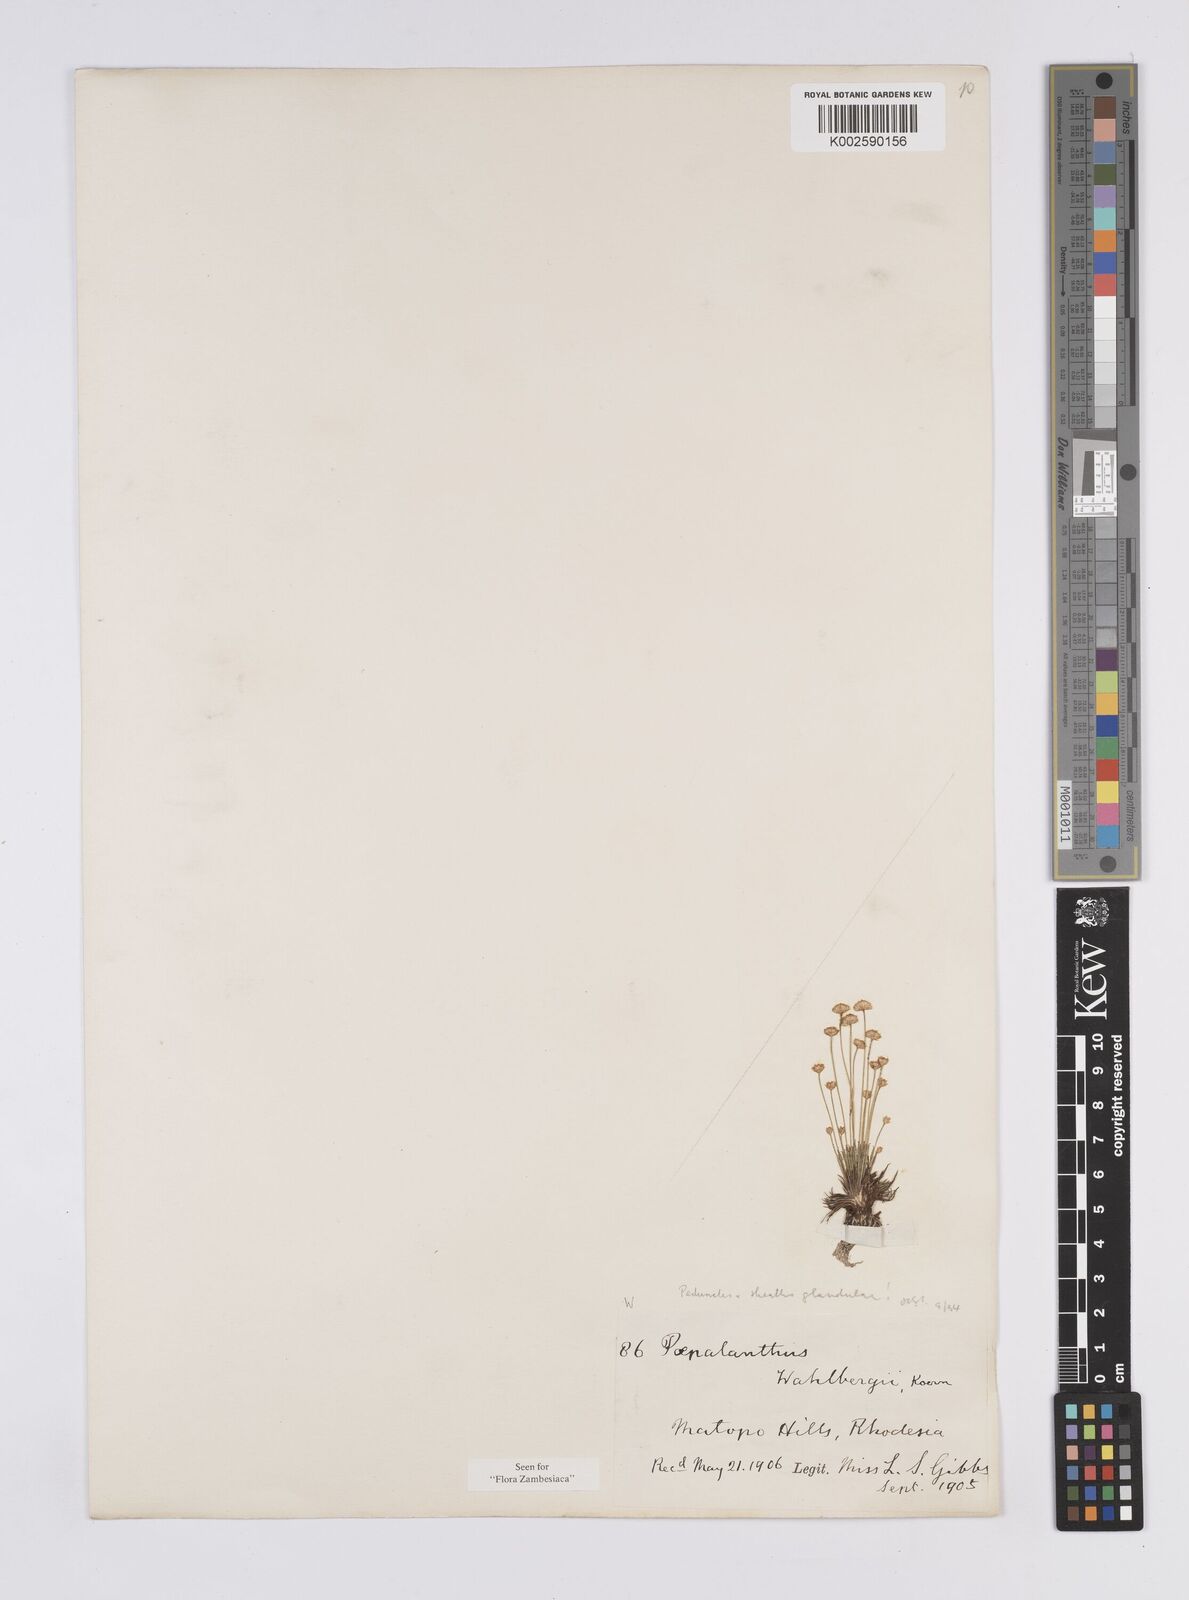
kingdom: Plantae
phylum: Tracheophyta
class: Liliopsida
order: Poales
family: Eriocaulaceae
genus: Syngonanthus
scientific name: Syngonanthus wahlbergii
